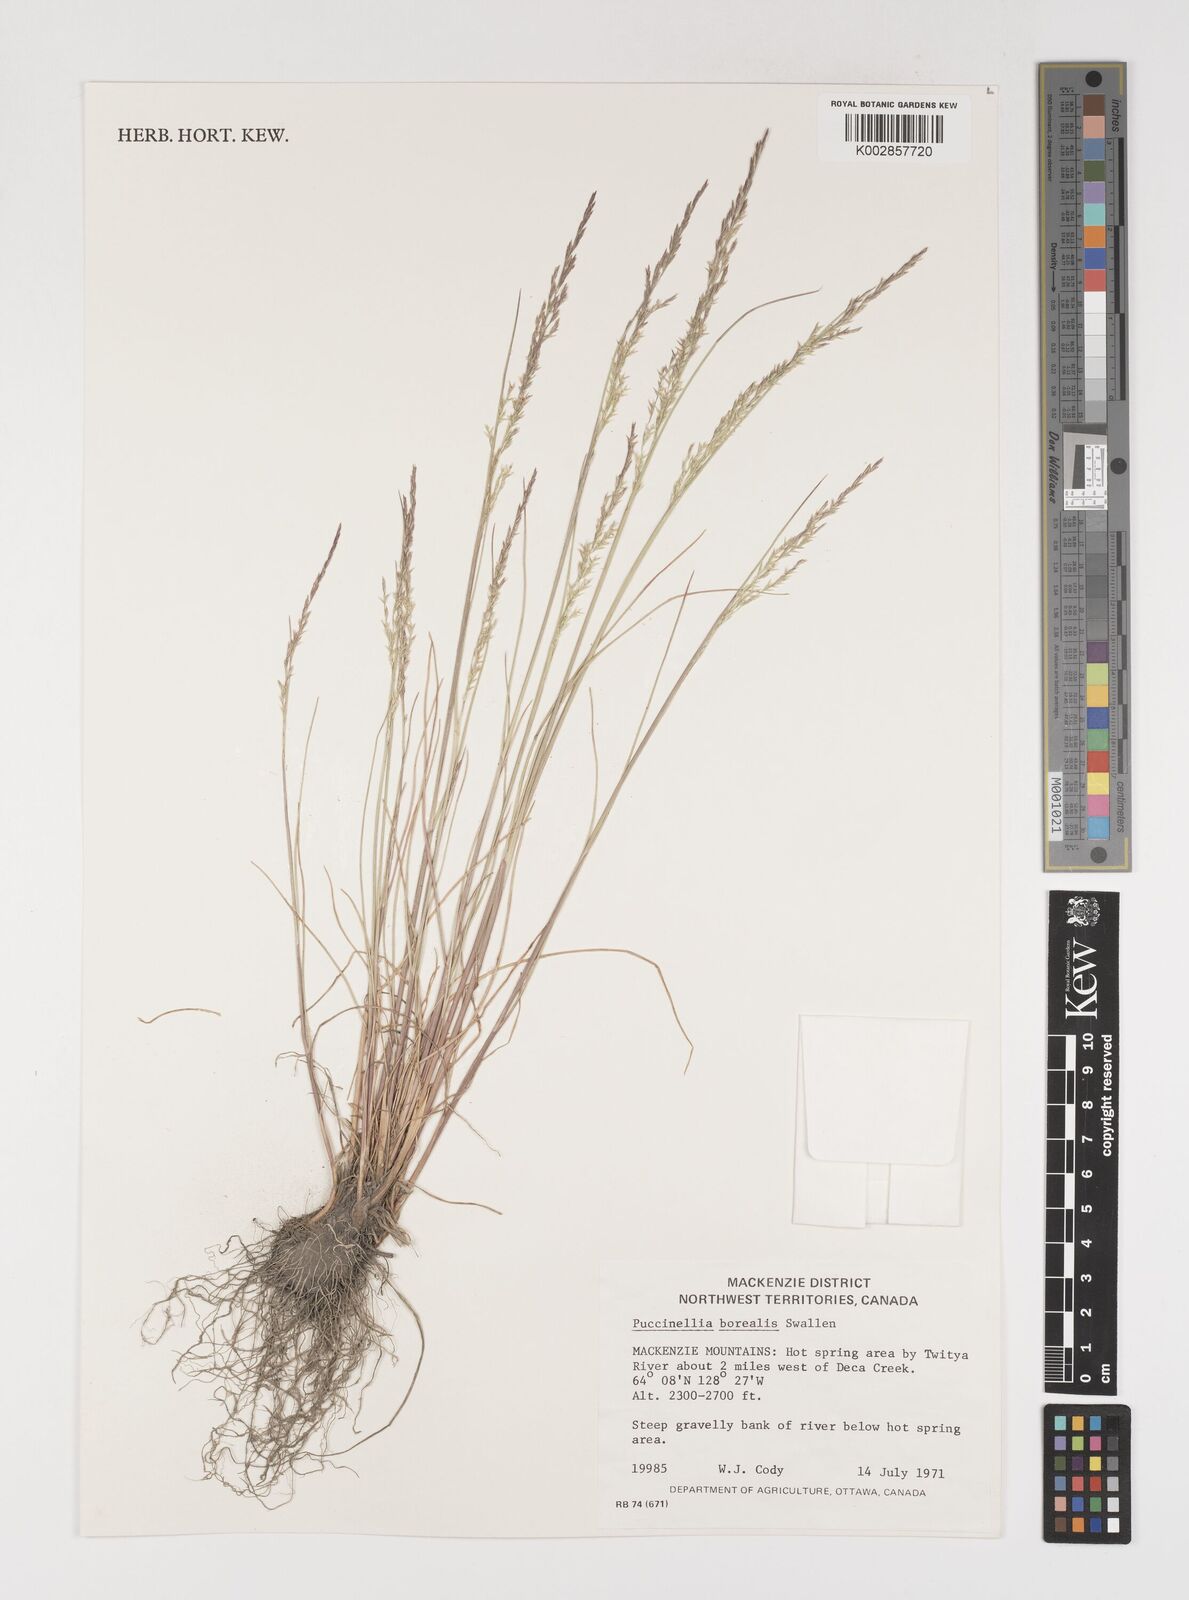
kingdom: Plantae
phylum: Tracheophyta
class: Liliopsida
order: Poales
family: Poaceae
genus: Puccinellia
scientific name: Puccinellia nuttalliana
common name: Nuttall's alkali grass
